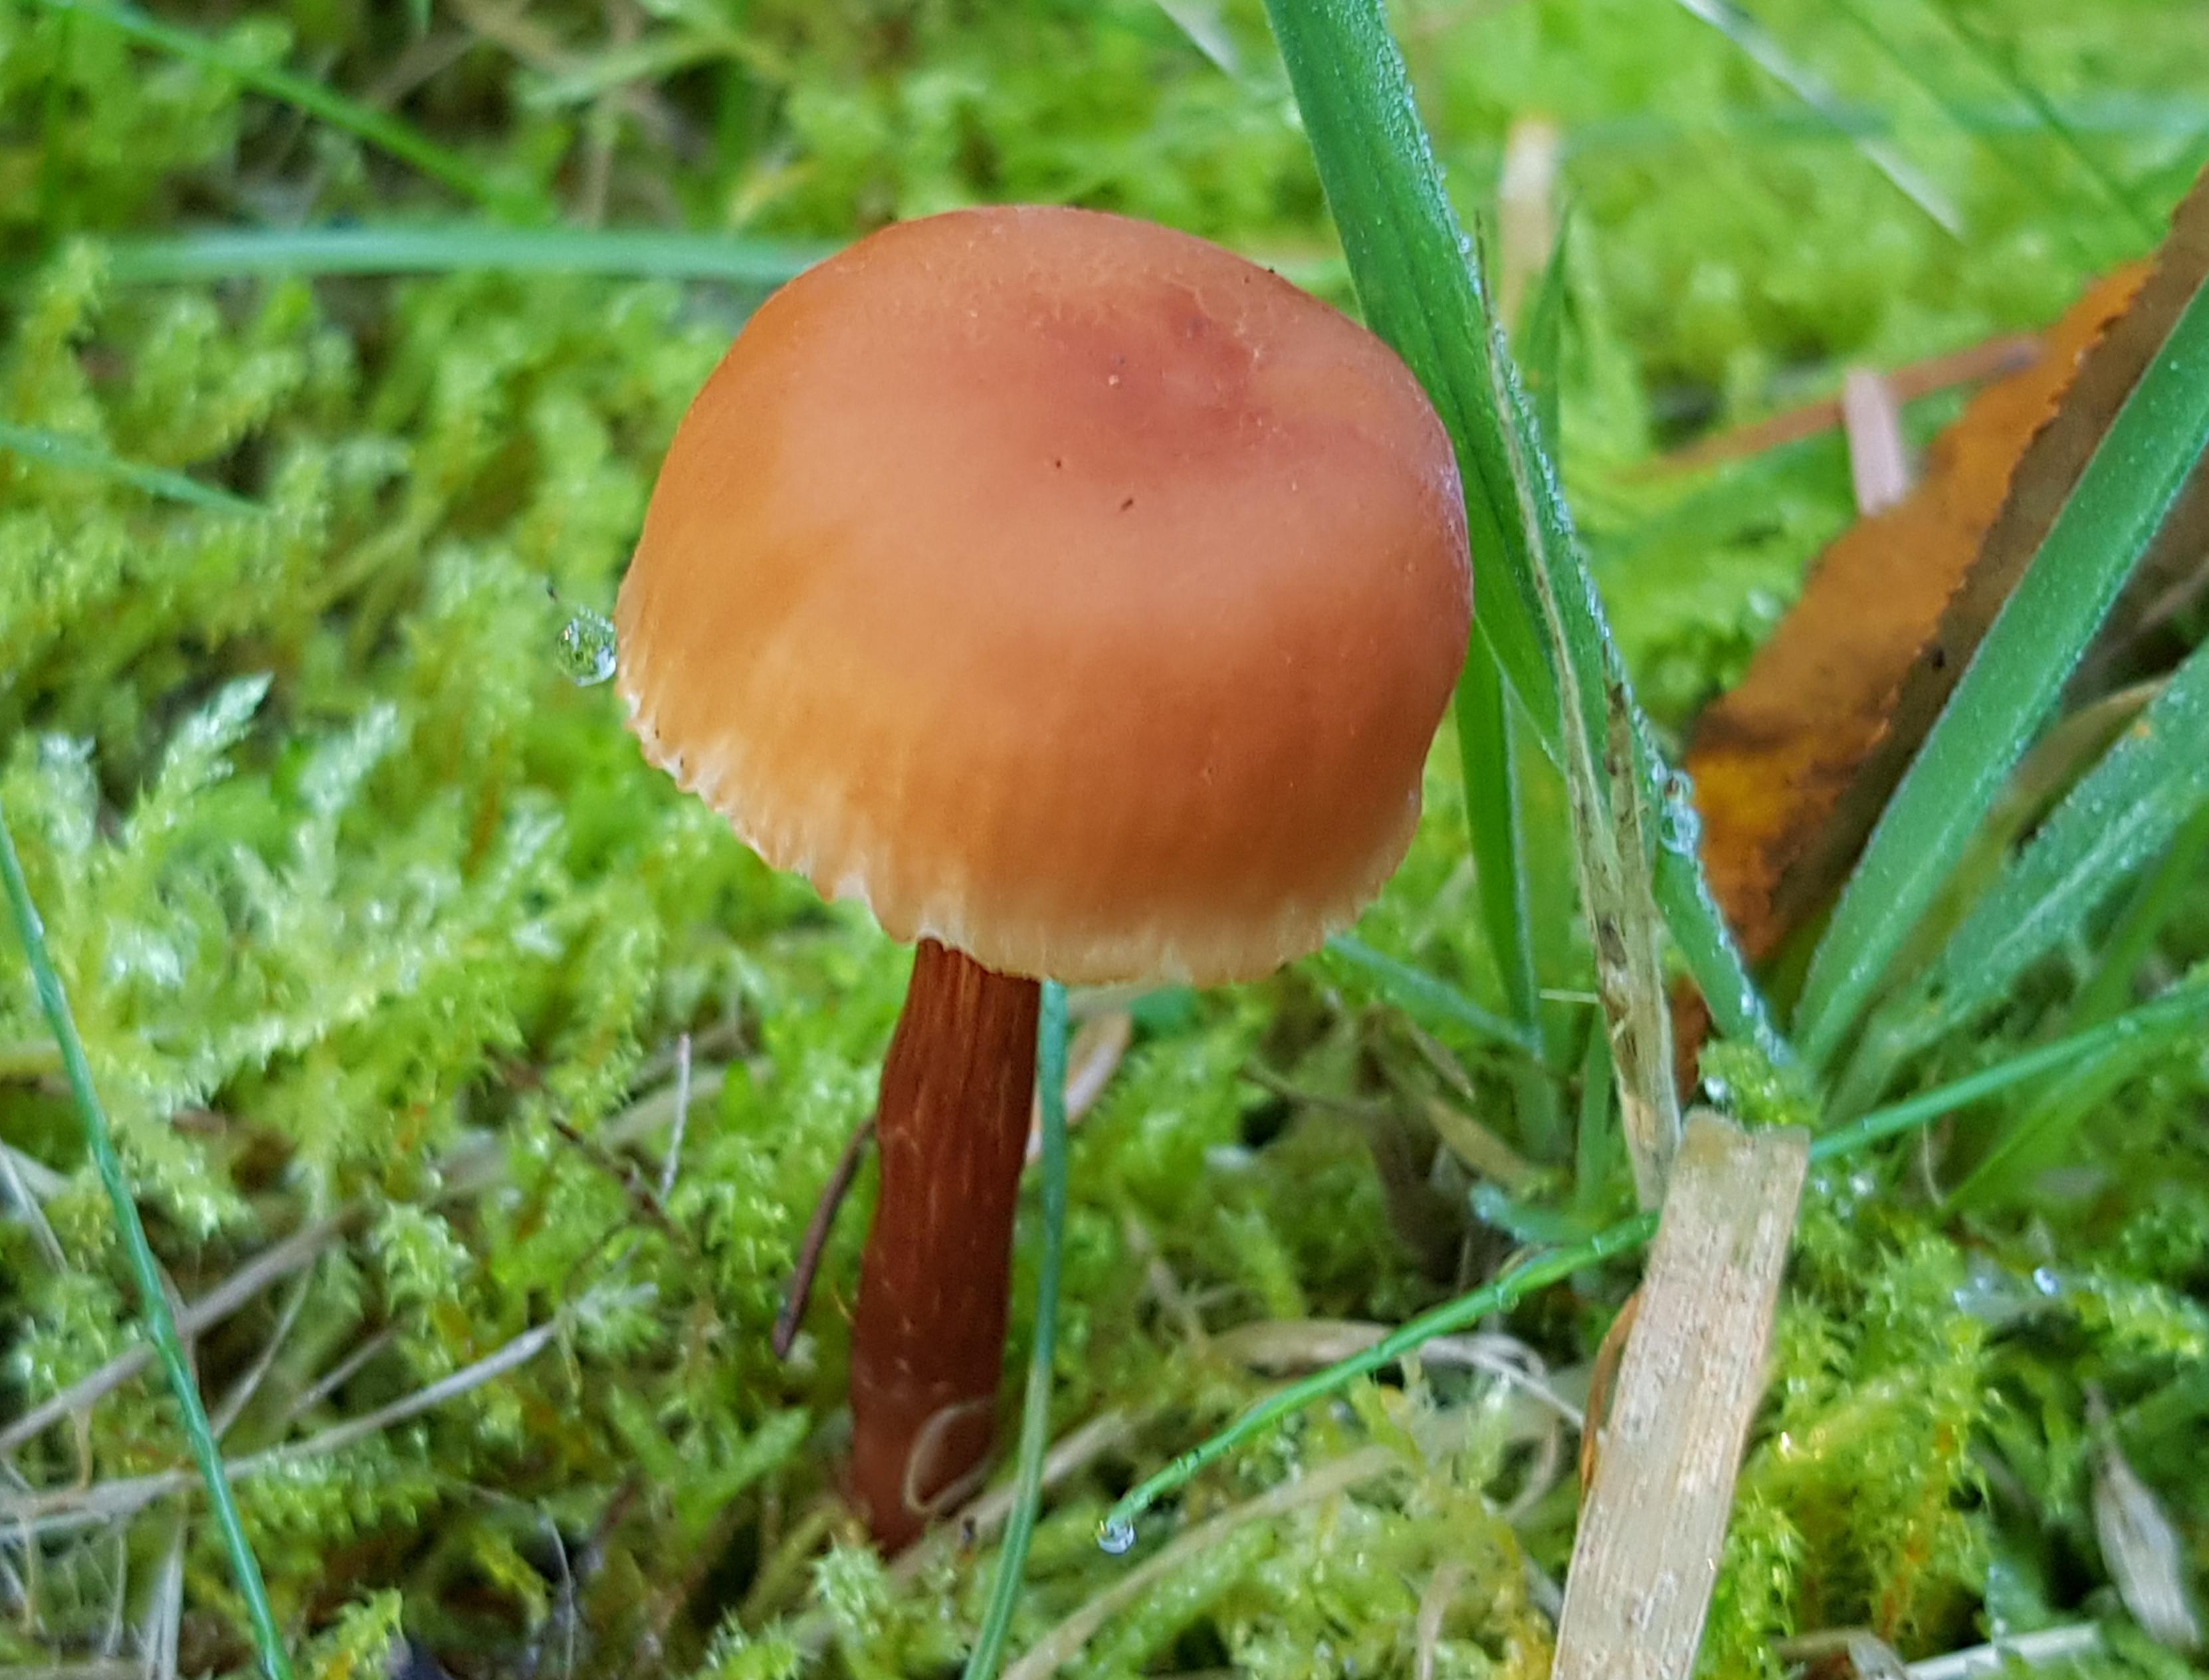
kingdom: Fungi
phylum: Basidiomycota
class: Agaricomycetes
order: Agaricales
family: Hydnangiaceae
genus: Laccaria
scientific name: Laccaria proxima
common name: stor ametysthat
